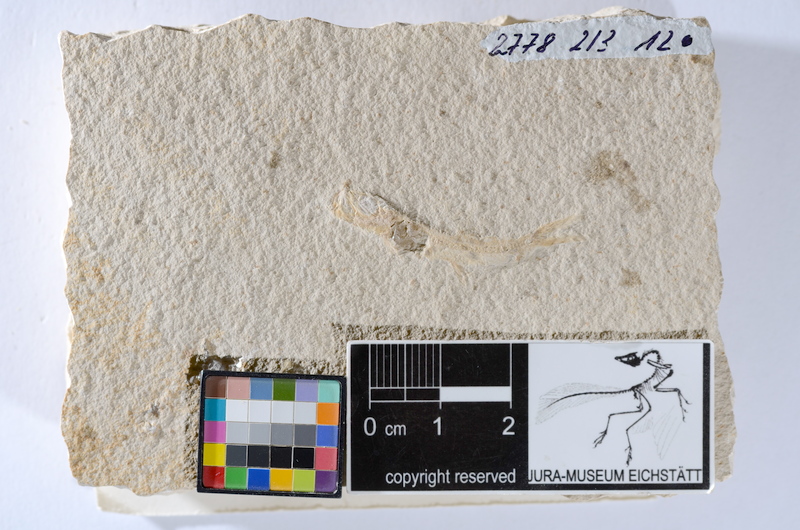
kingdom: Animalia
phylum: Chordata
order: Salmoniformes
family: Orthogonikleithridae
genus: Leptolepides
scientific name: Leptolepides sprattiformis
